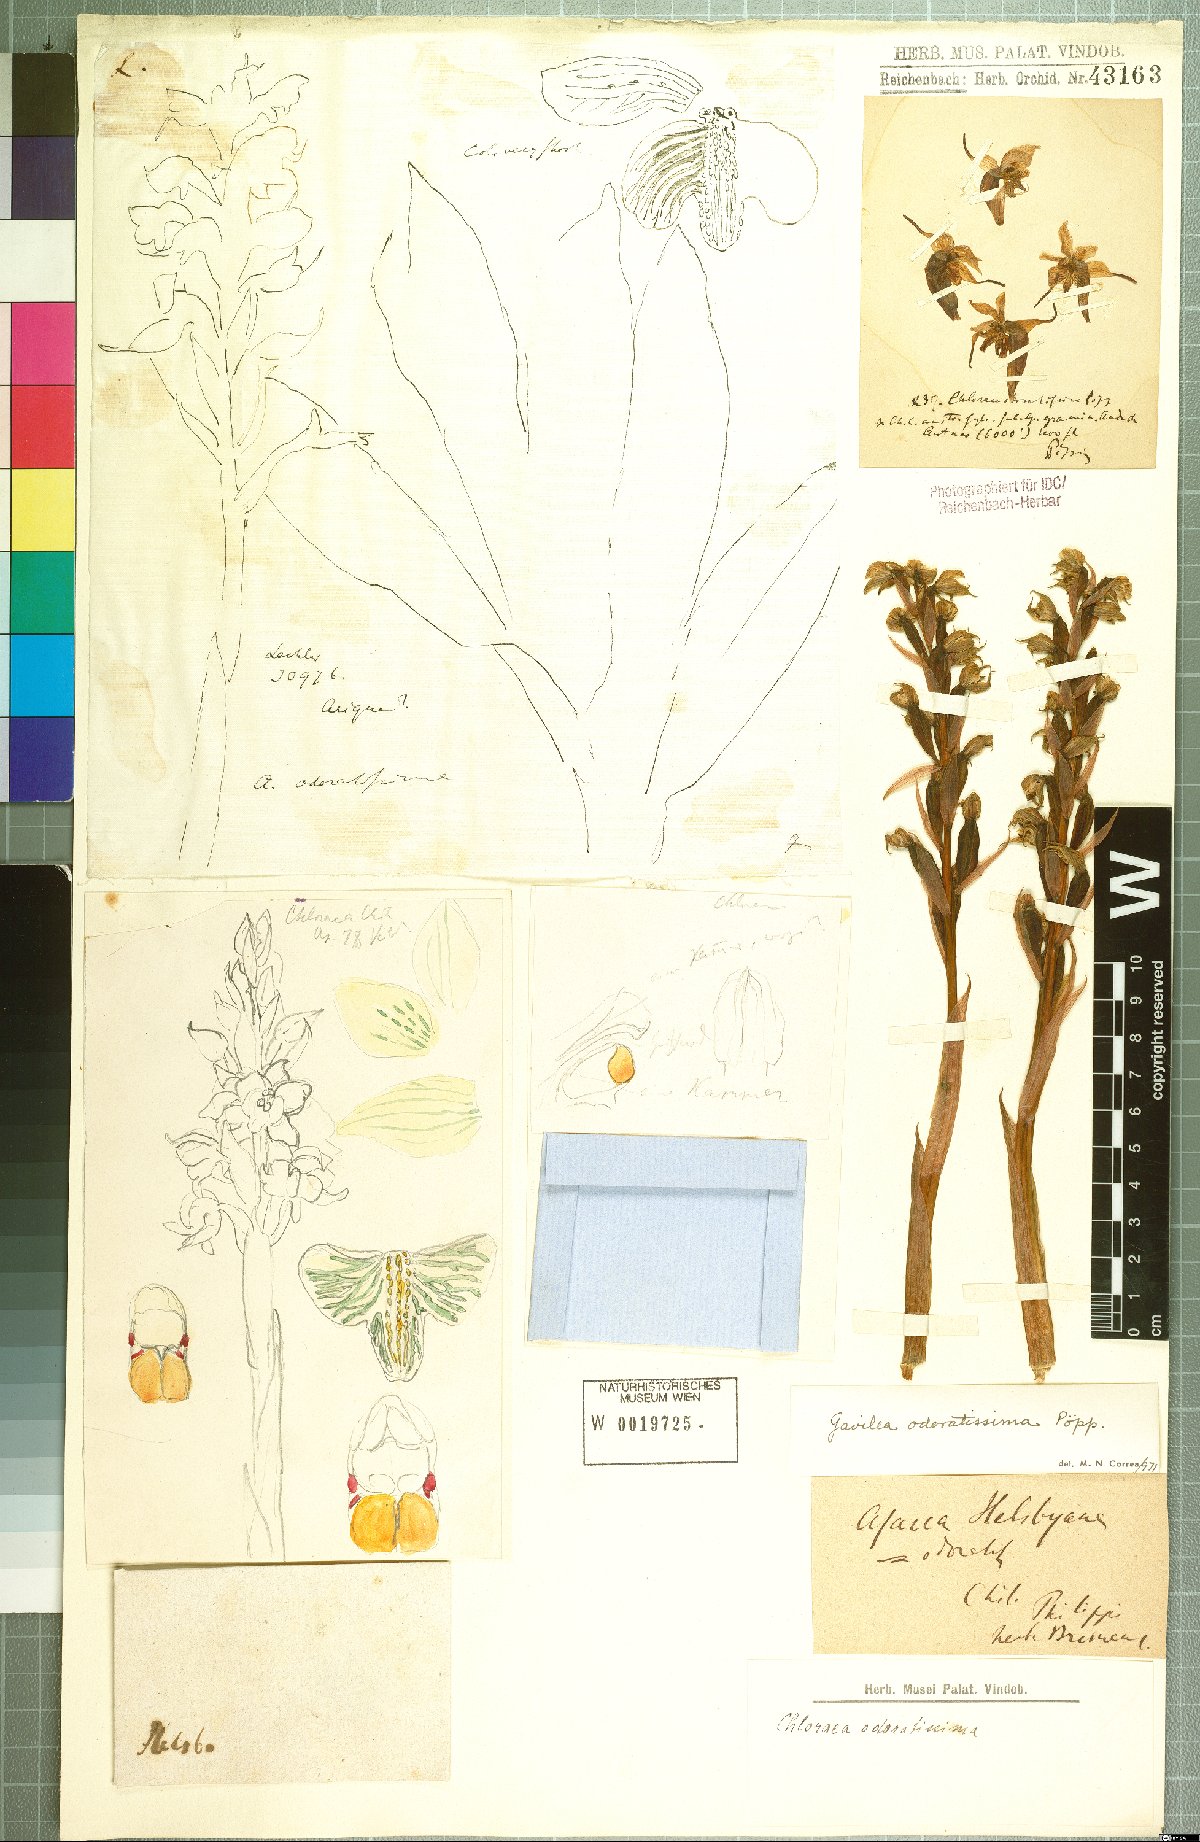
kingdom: Plantae
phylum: Tracheophyta
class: Liliopsida
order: Asparagales
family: Orchidaceae
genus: Gavilea
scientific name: Gavilea odoratissima
